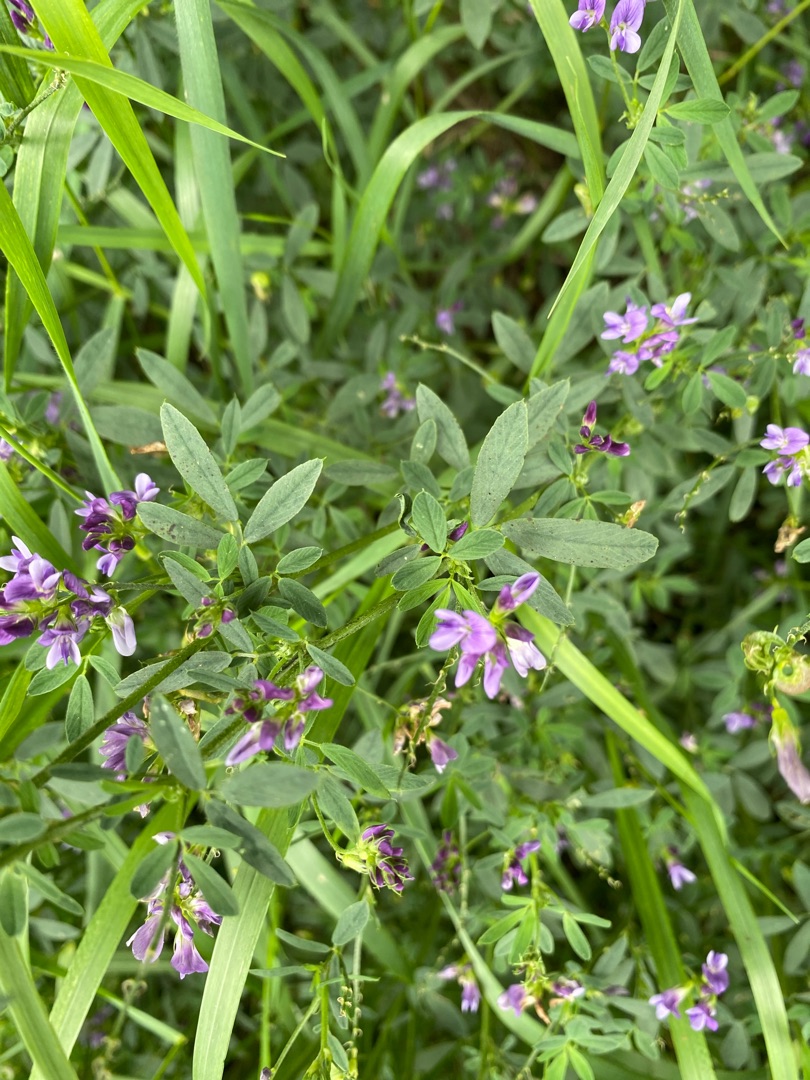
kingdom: Plantae
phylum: Tracheophyta
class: Magnoliopsida
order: Fabales
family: Fabaceae
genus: Medicago
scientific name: Medicago sativa
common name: Lucerne
